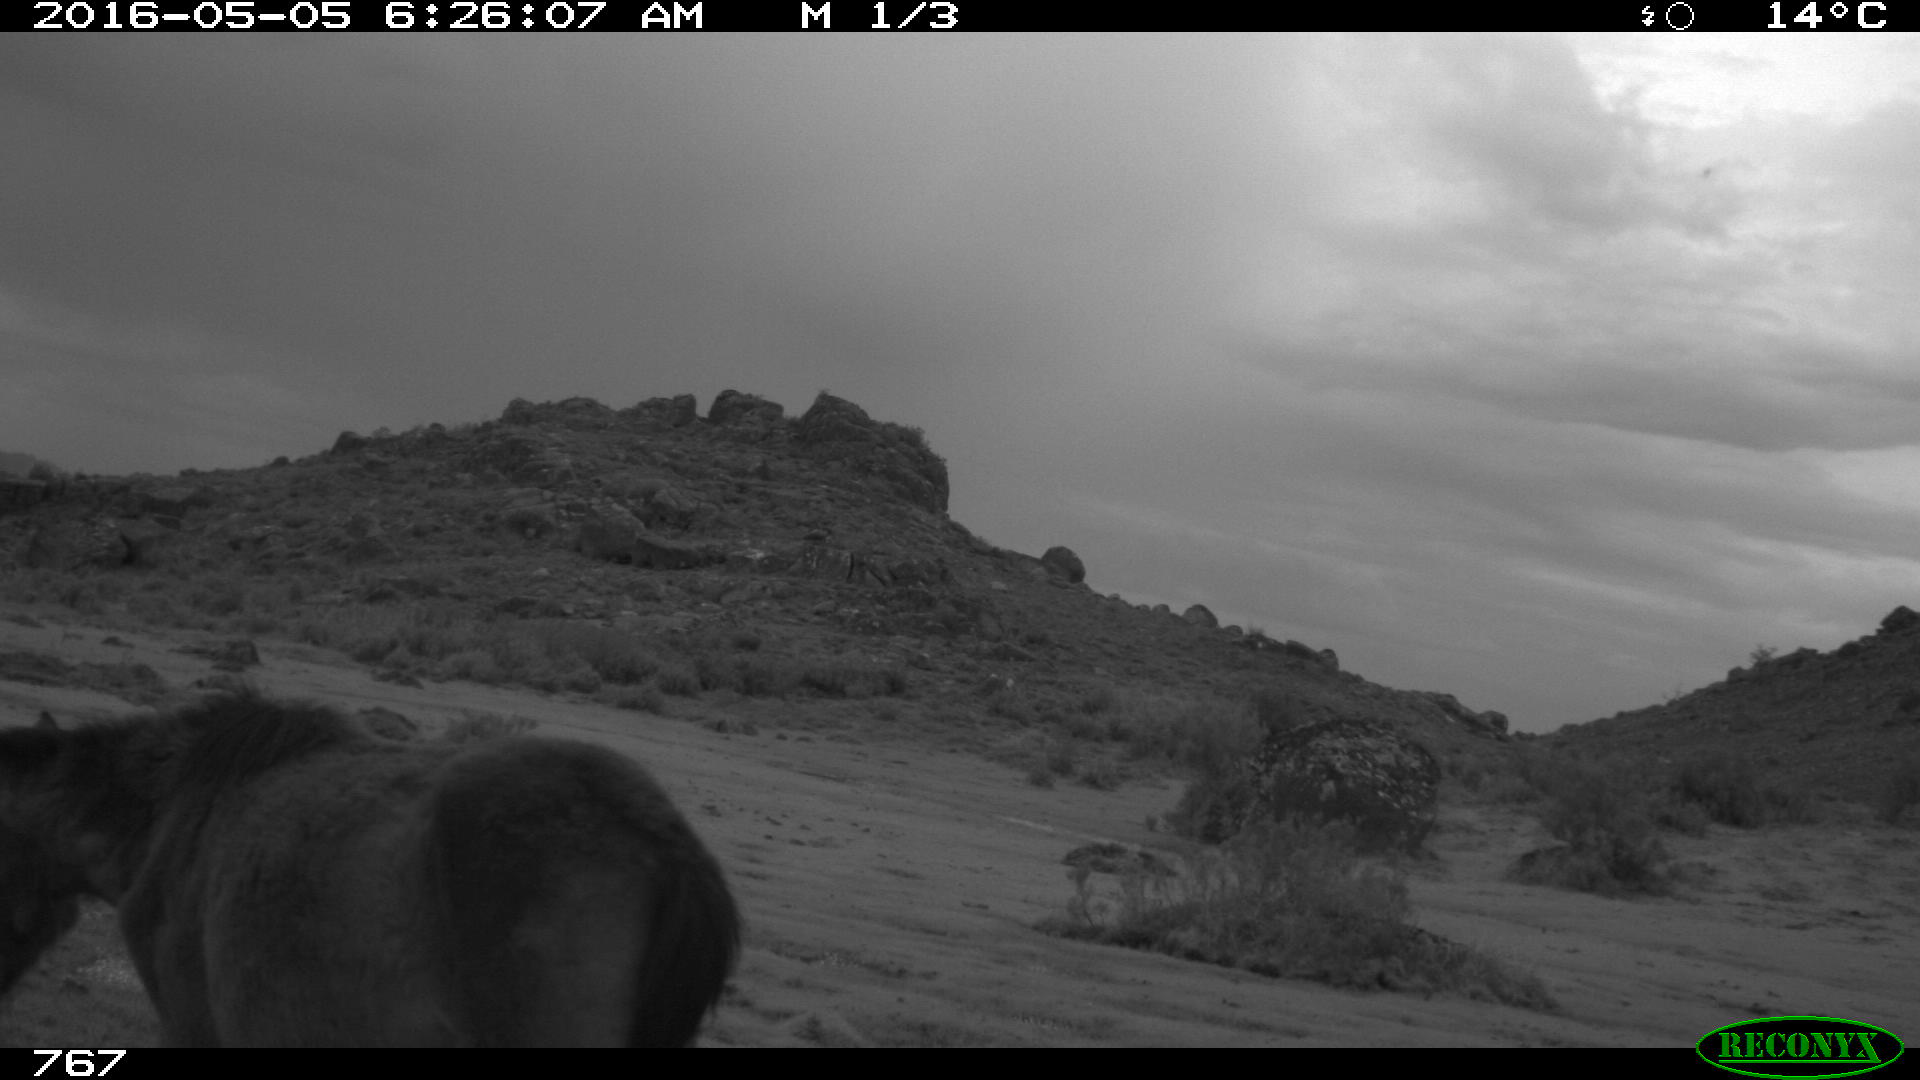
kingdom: Animalia
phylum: Chordata
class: Mammalia
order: Perissodactyla
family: Equidae
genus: Equus
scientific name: Equus caballus
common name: Horse
